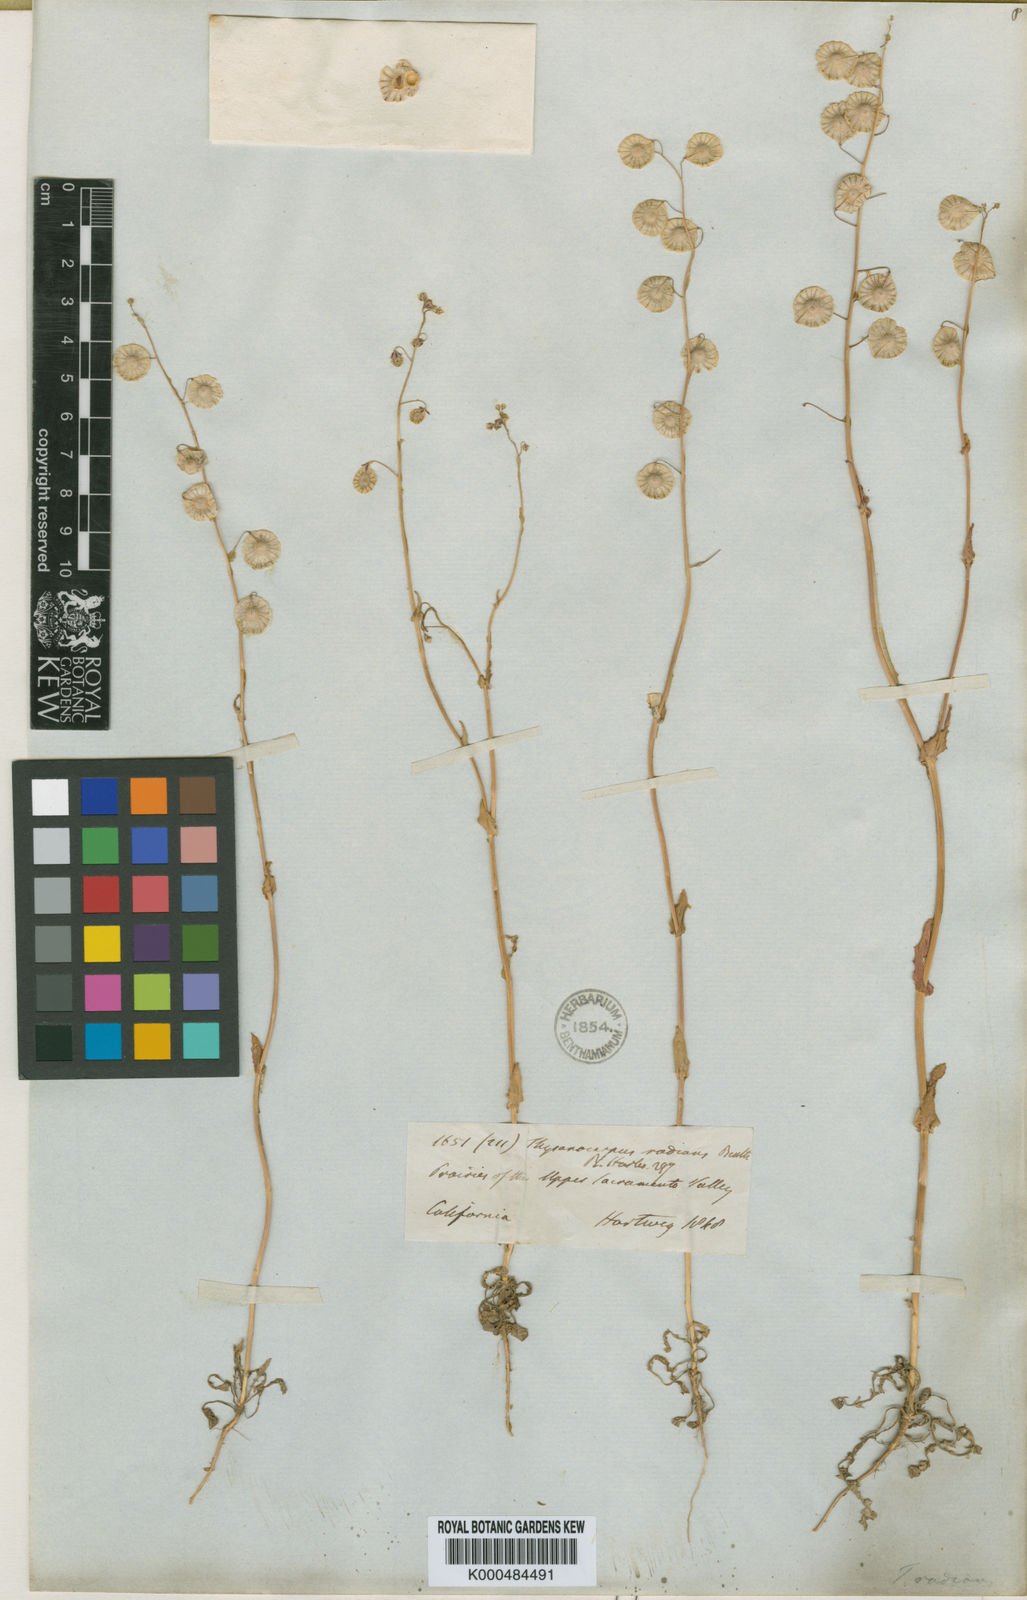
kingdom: Plantae
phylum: Tracheophyta
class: Magnoliopsida
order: Brassicales
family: Brassicaceae
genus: Thysanocarpus
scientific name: Thysanocarpus radians
